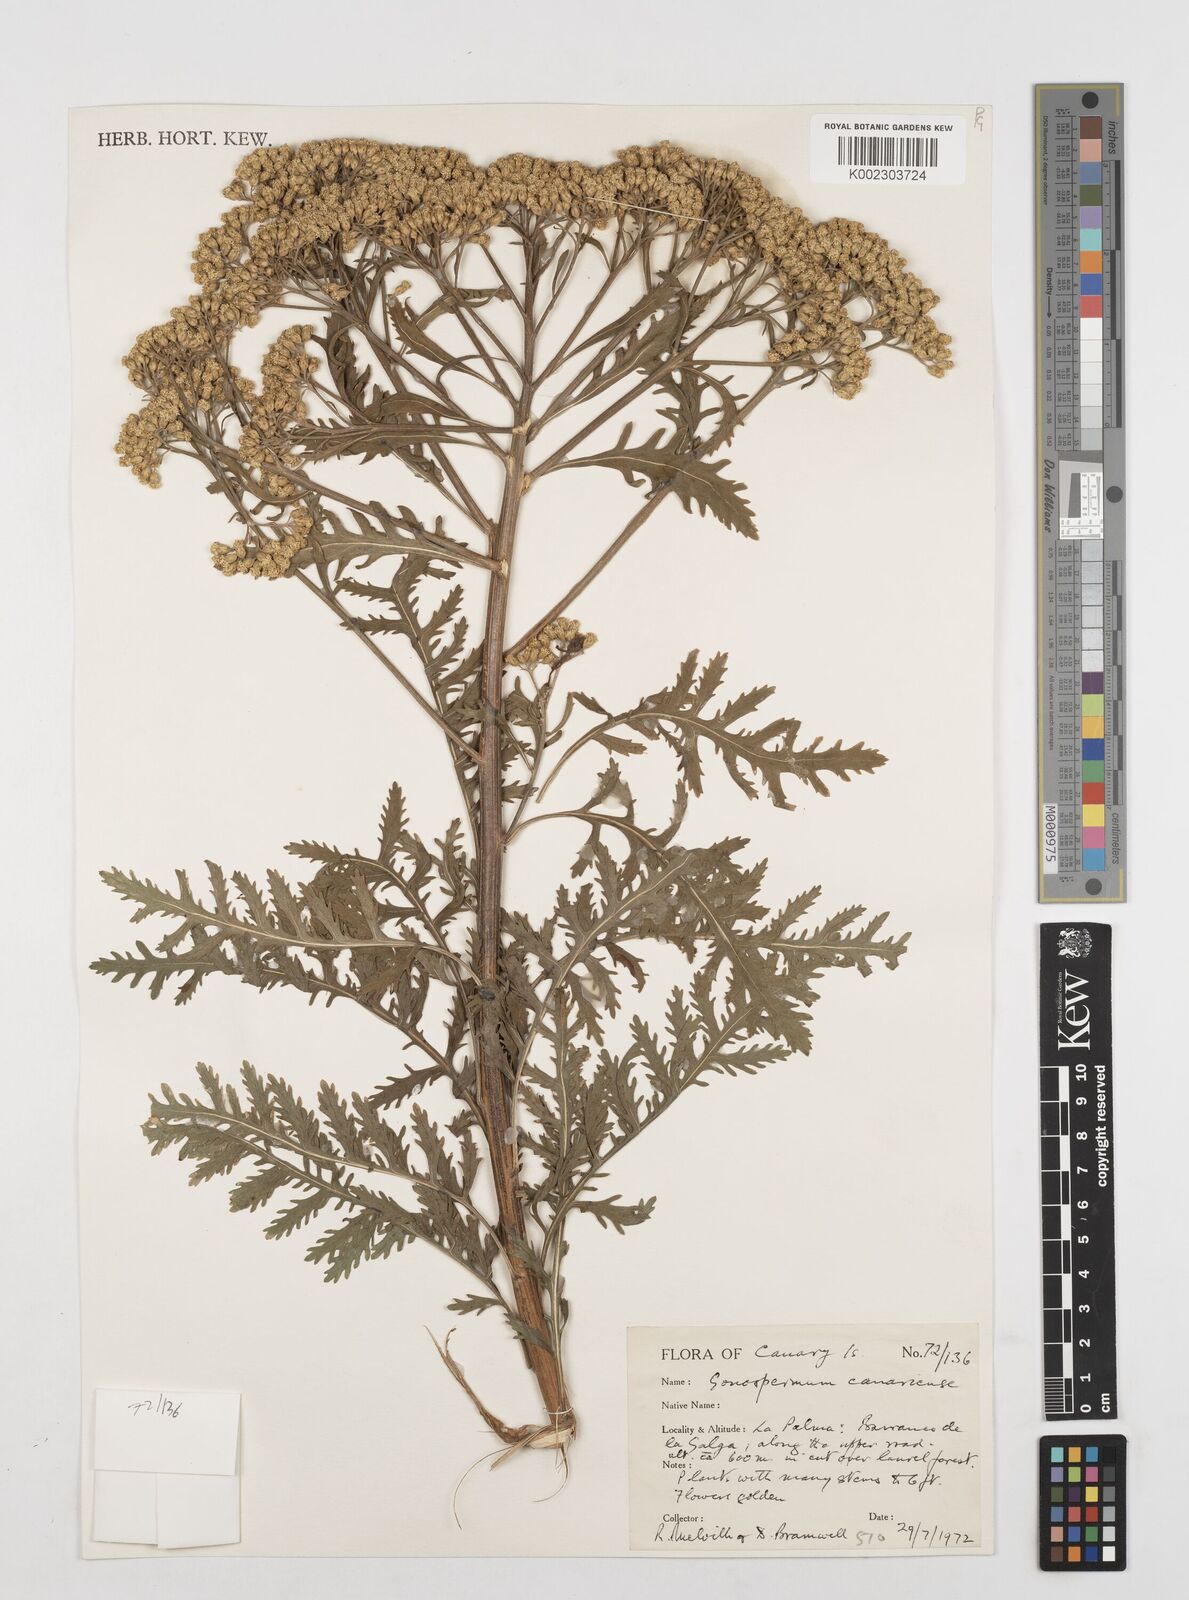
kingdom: Plantae
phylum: Tracheophyta
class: Magnoliopsida
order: Asterales
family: Asteraceae
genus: Gonospermum
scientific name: Gonospermum
